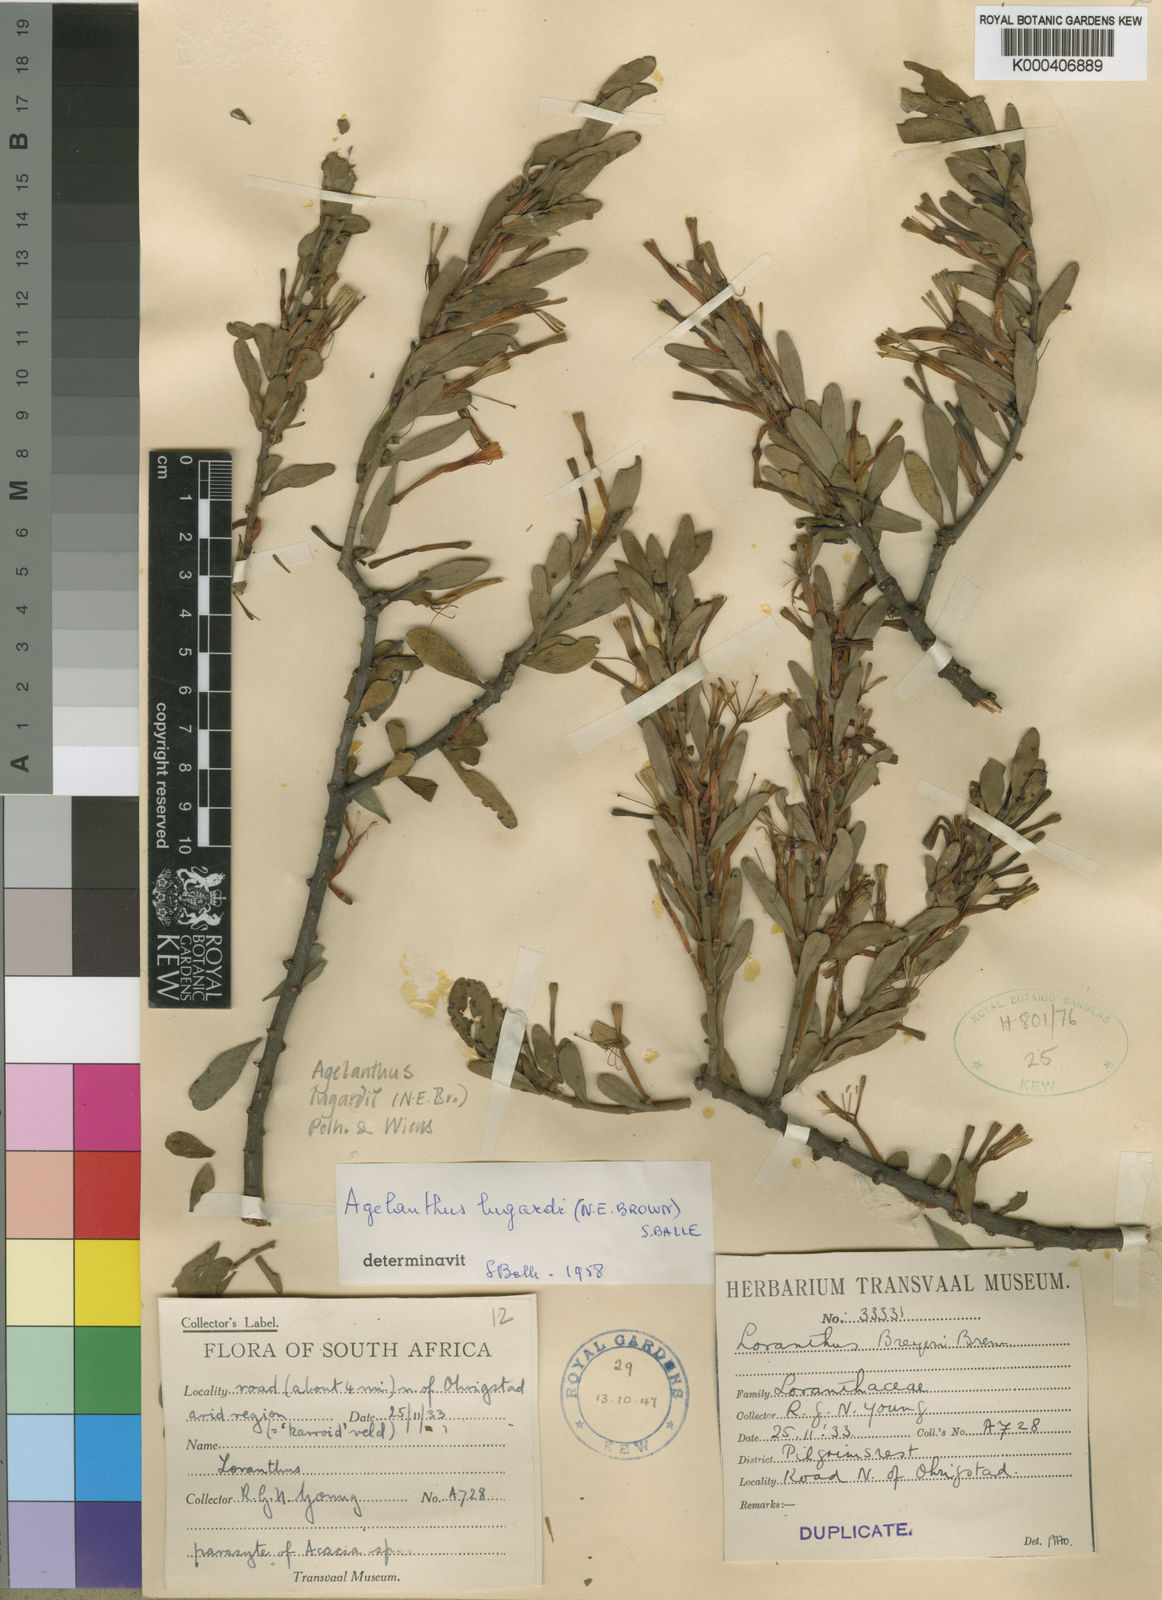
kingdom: Plantae
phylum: Tracheophyta
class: Magnoliopsida
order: Santalales
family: Loranthaceae
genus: Agelanthus
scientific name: Agelanthus lugardii
